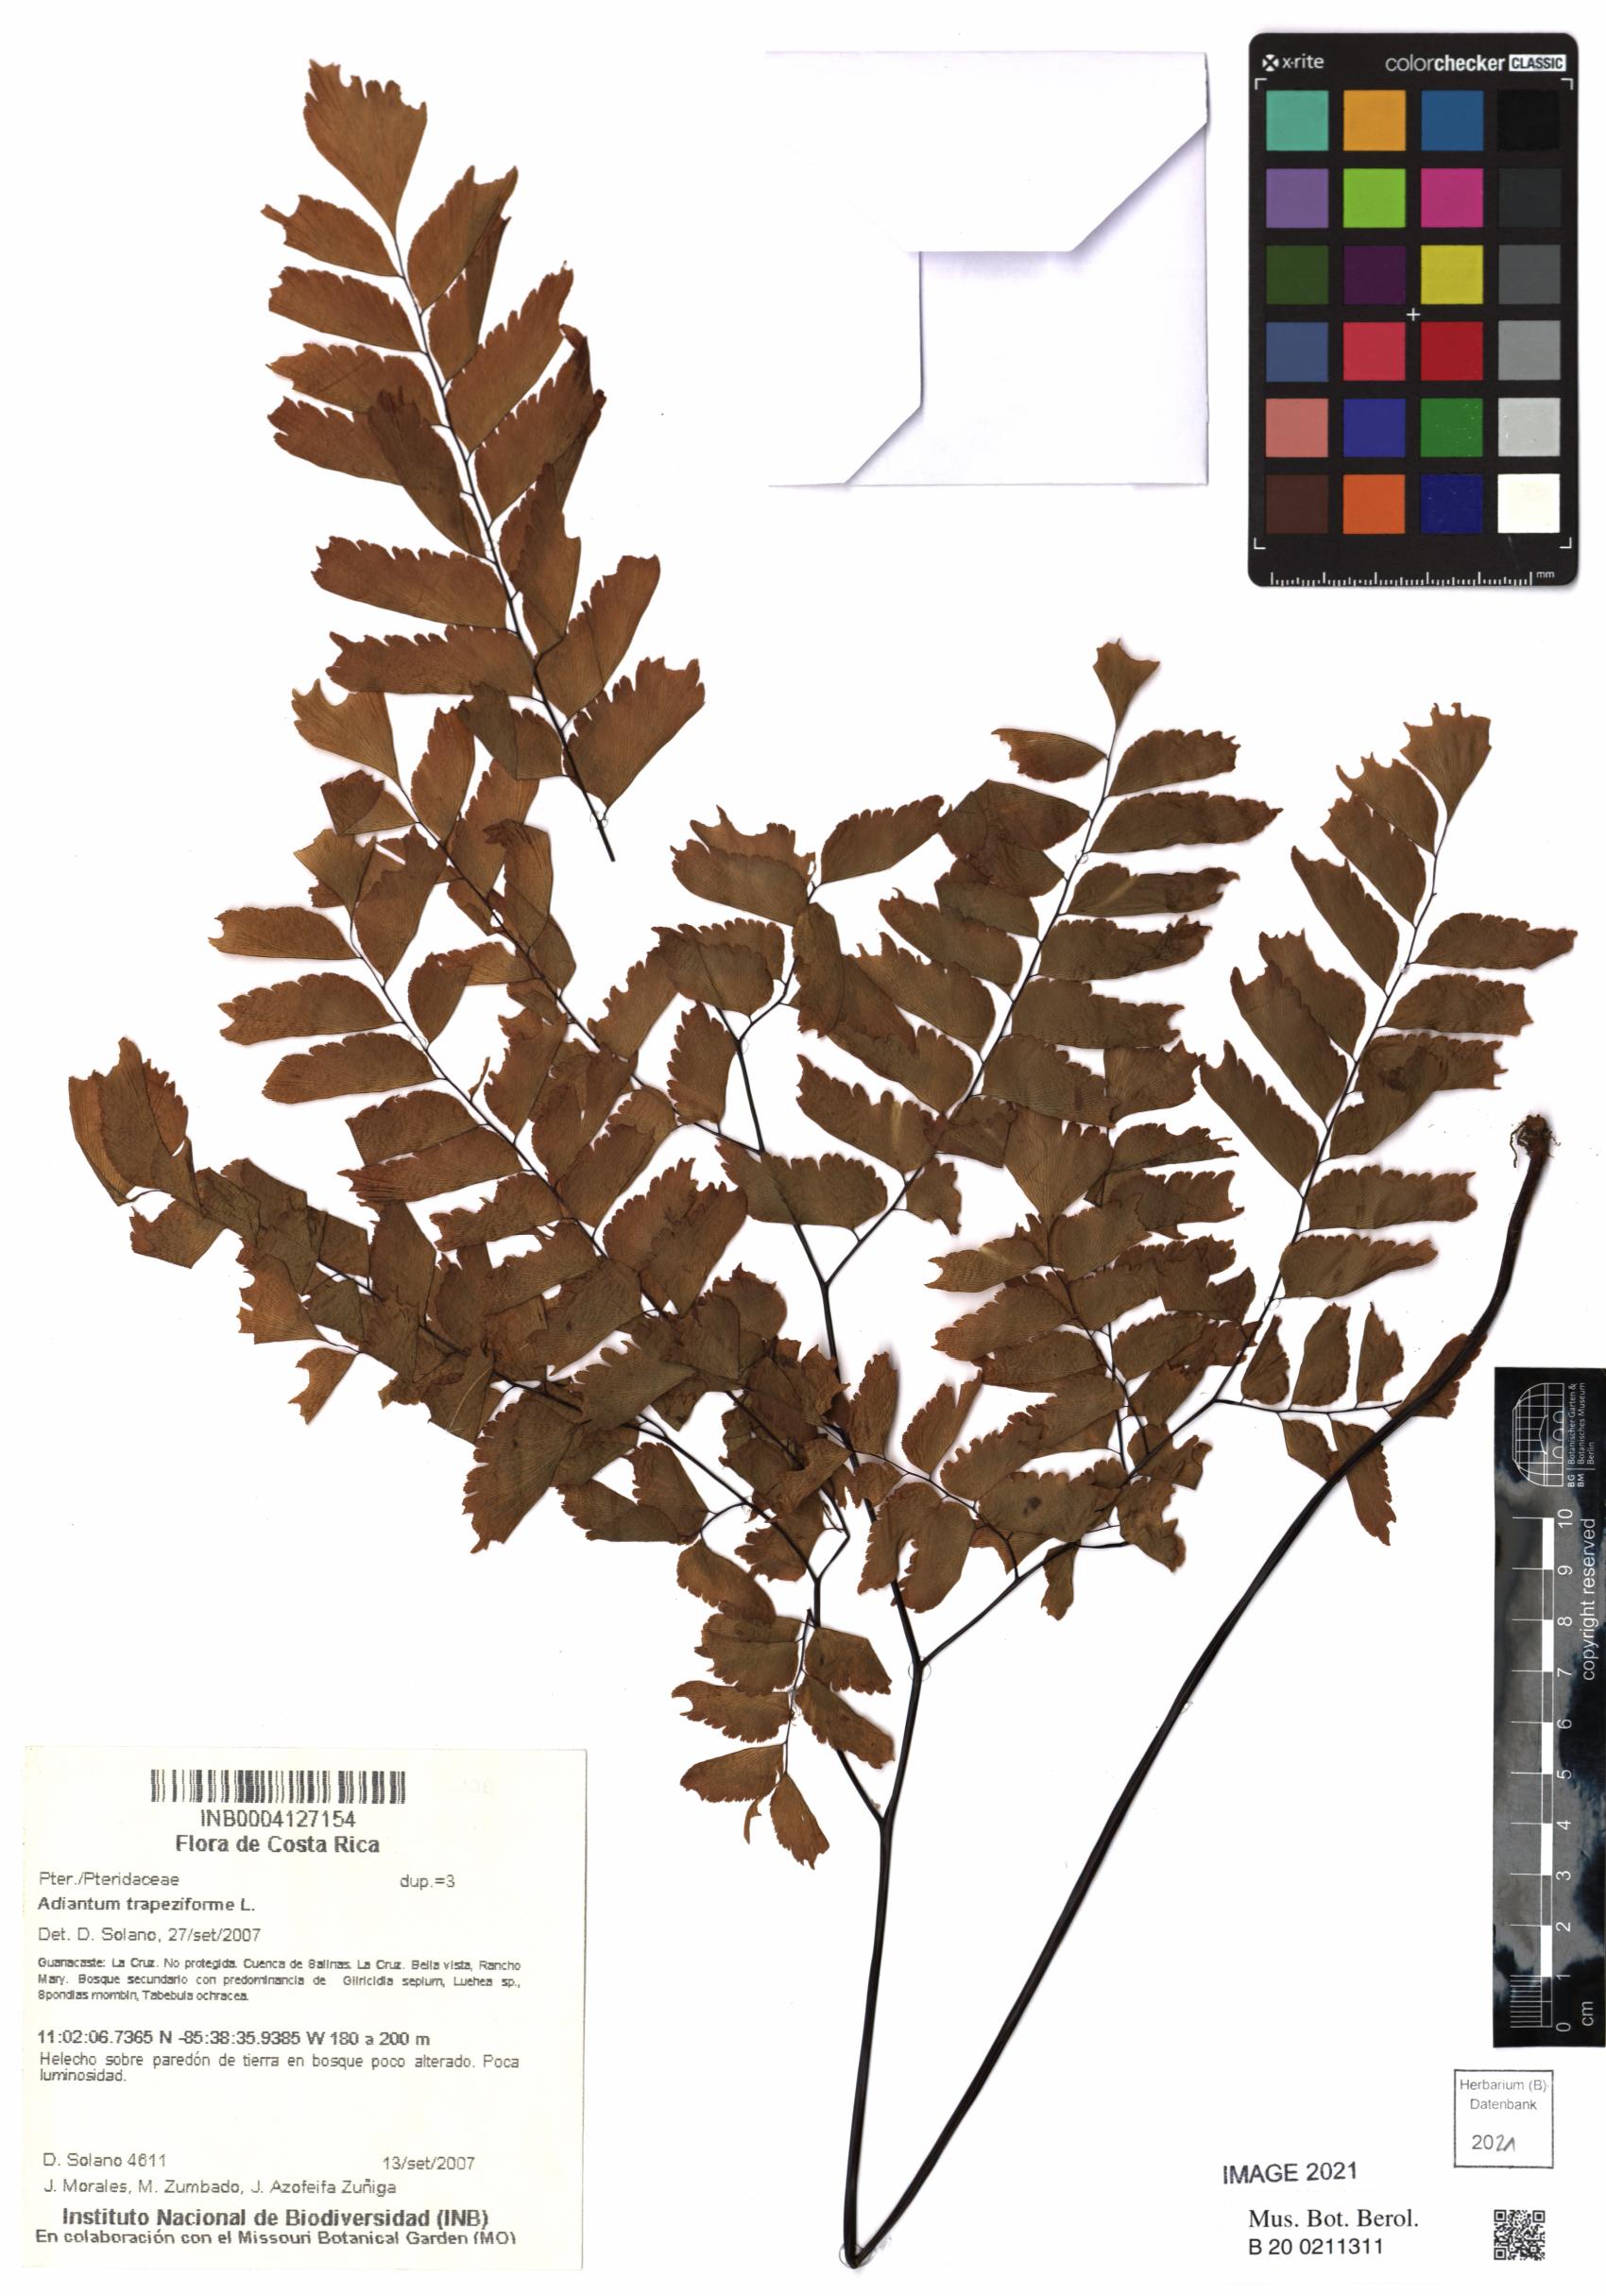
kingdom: Plantae
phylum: Tracheophyta
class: Polypodiopsida
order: Polypodiales
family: Pteridaceae
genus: Adiantum
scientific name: Adiantum trapeziforme
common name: Diamond maidenhair
